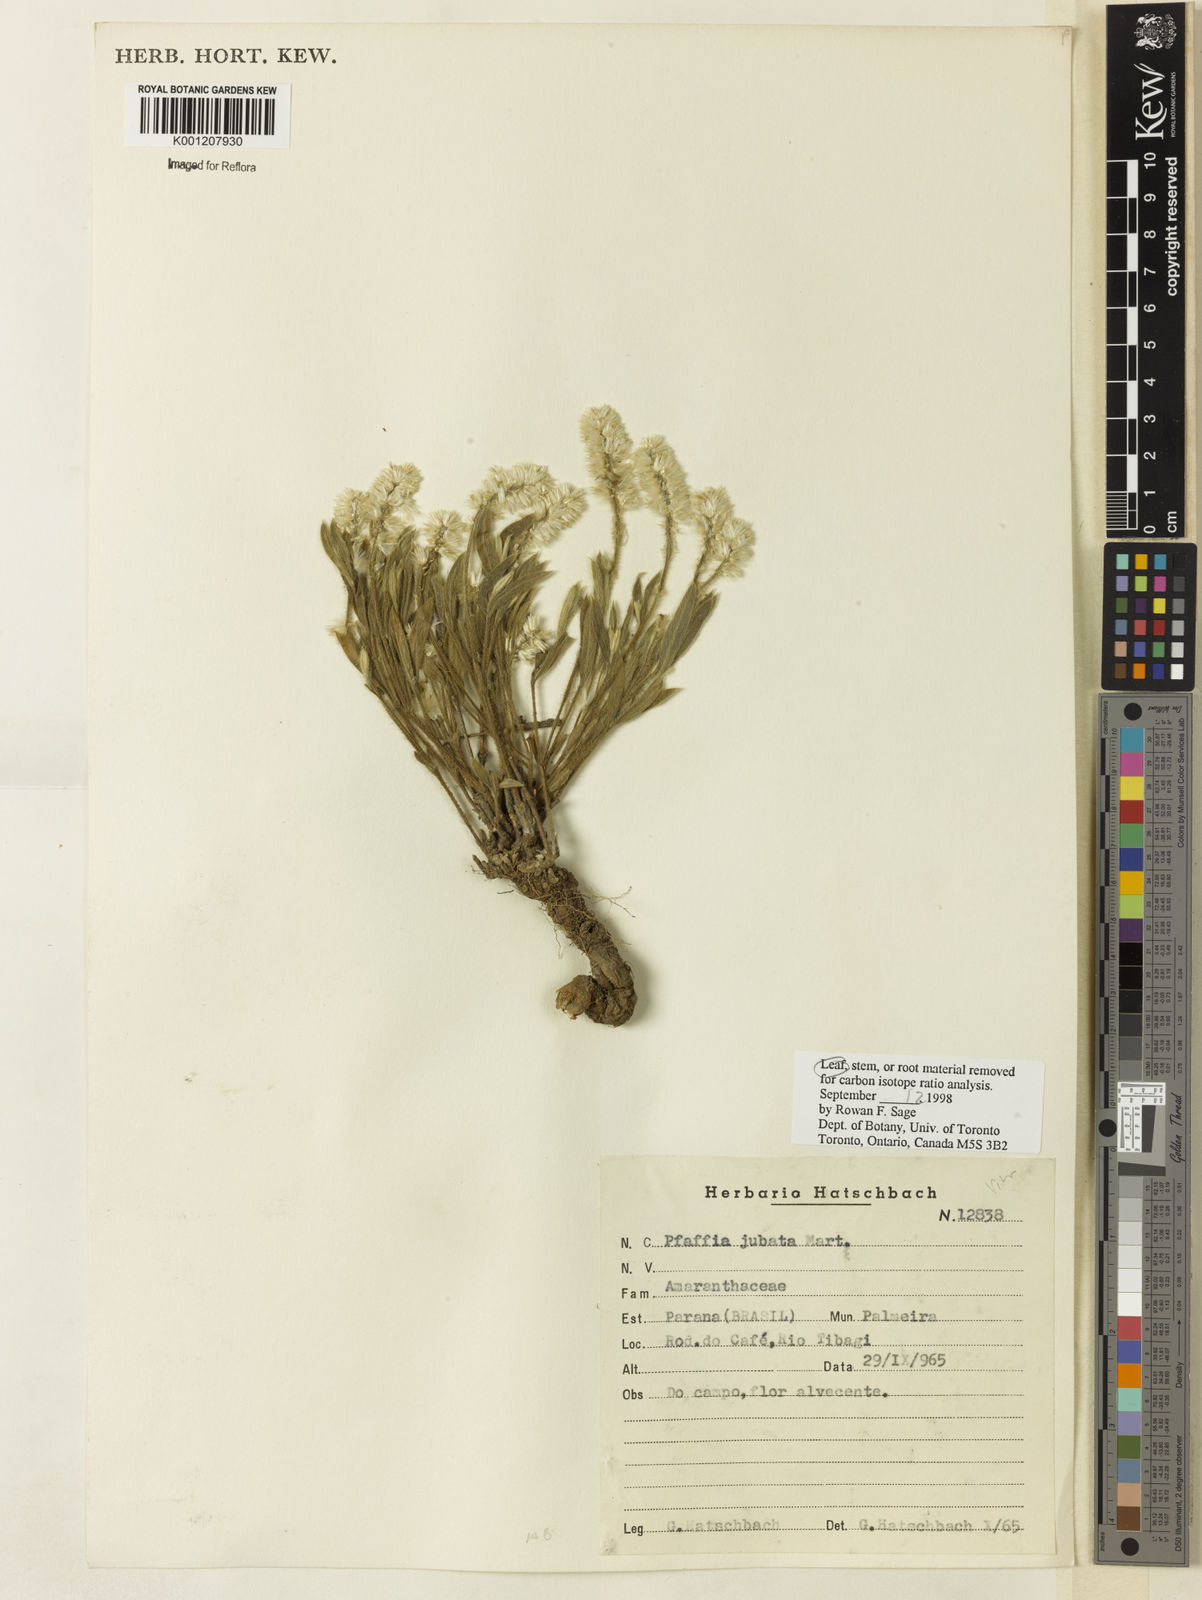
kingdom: Plantae
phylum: Tracheophyta
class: Magnoliopsida
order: Caryophyllales
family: Amaranthaceae
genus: Pfaffia
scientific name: Pfaffia jubata
